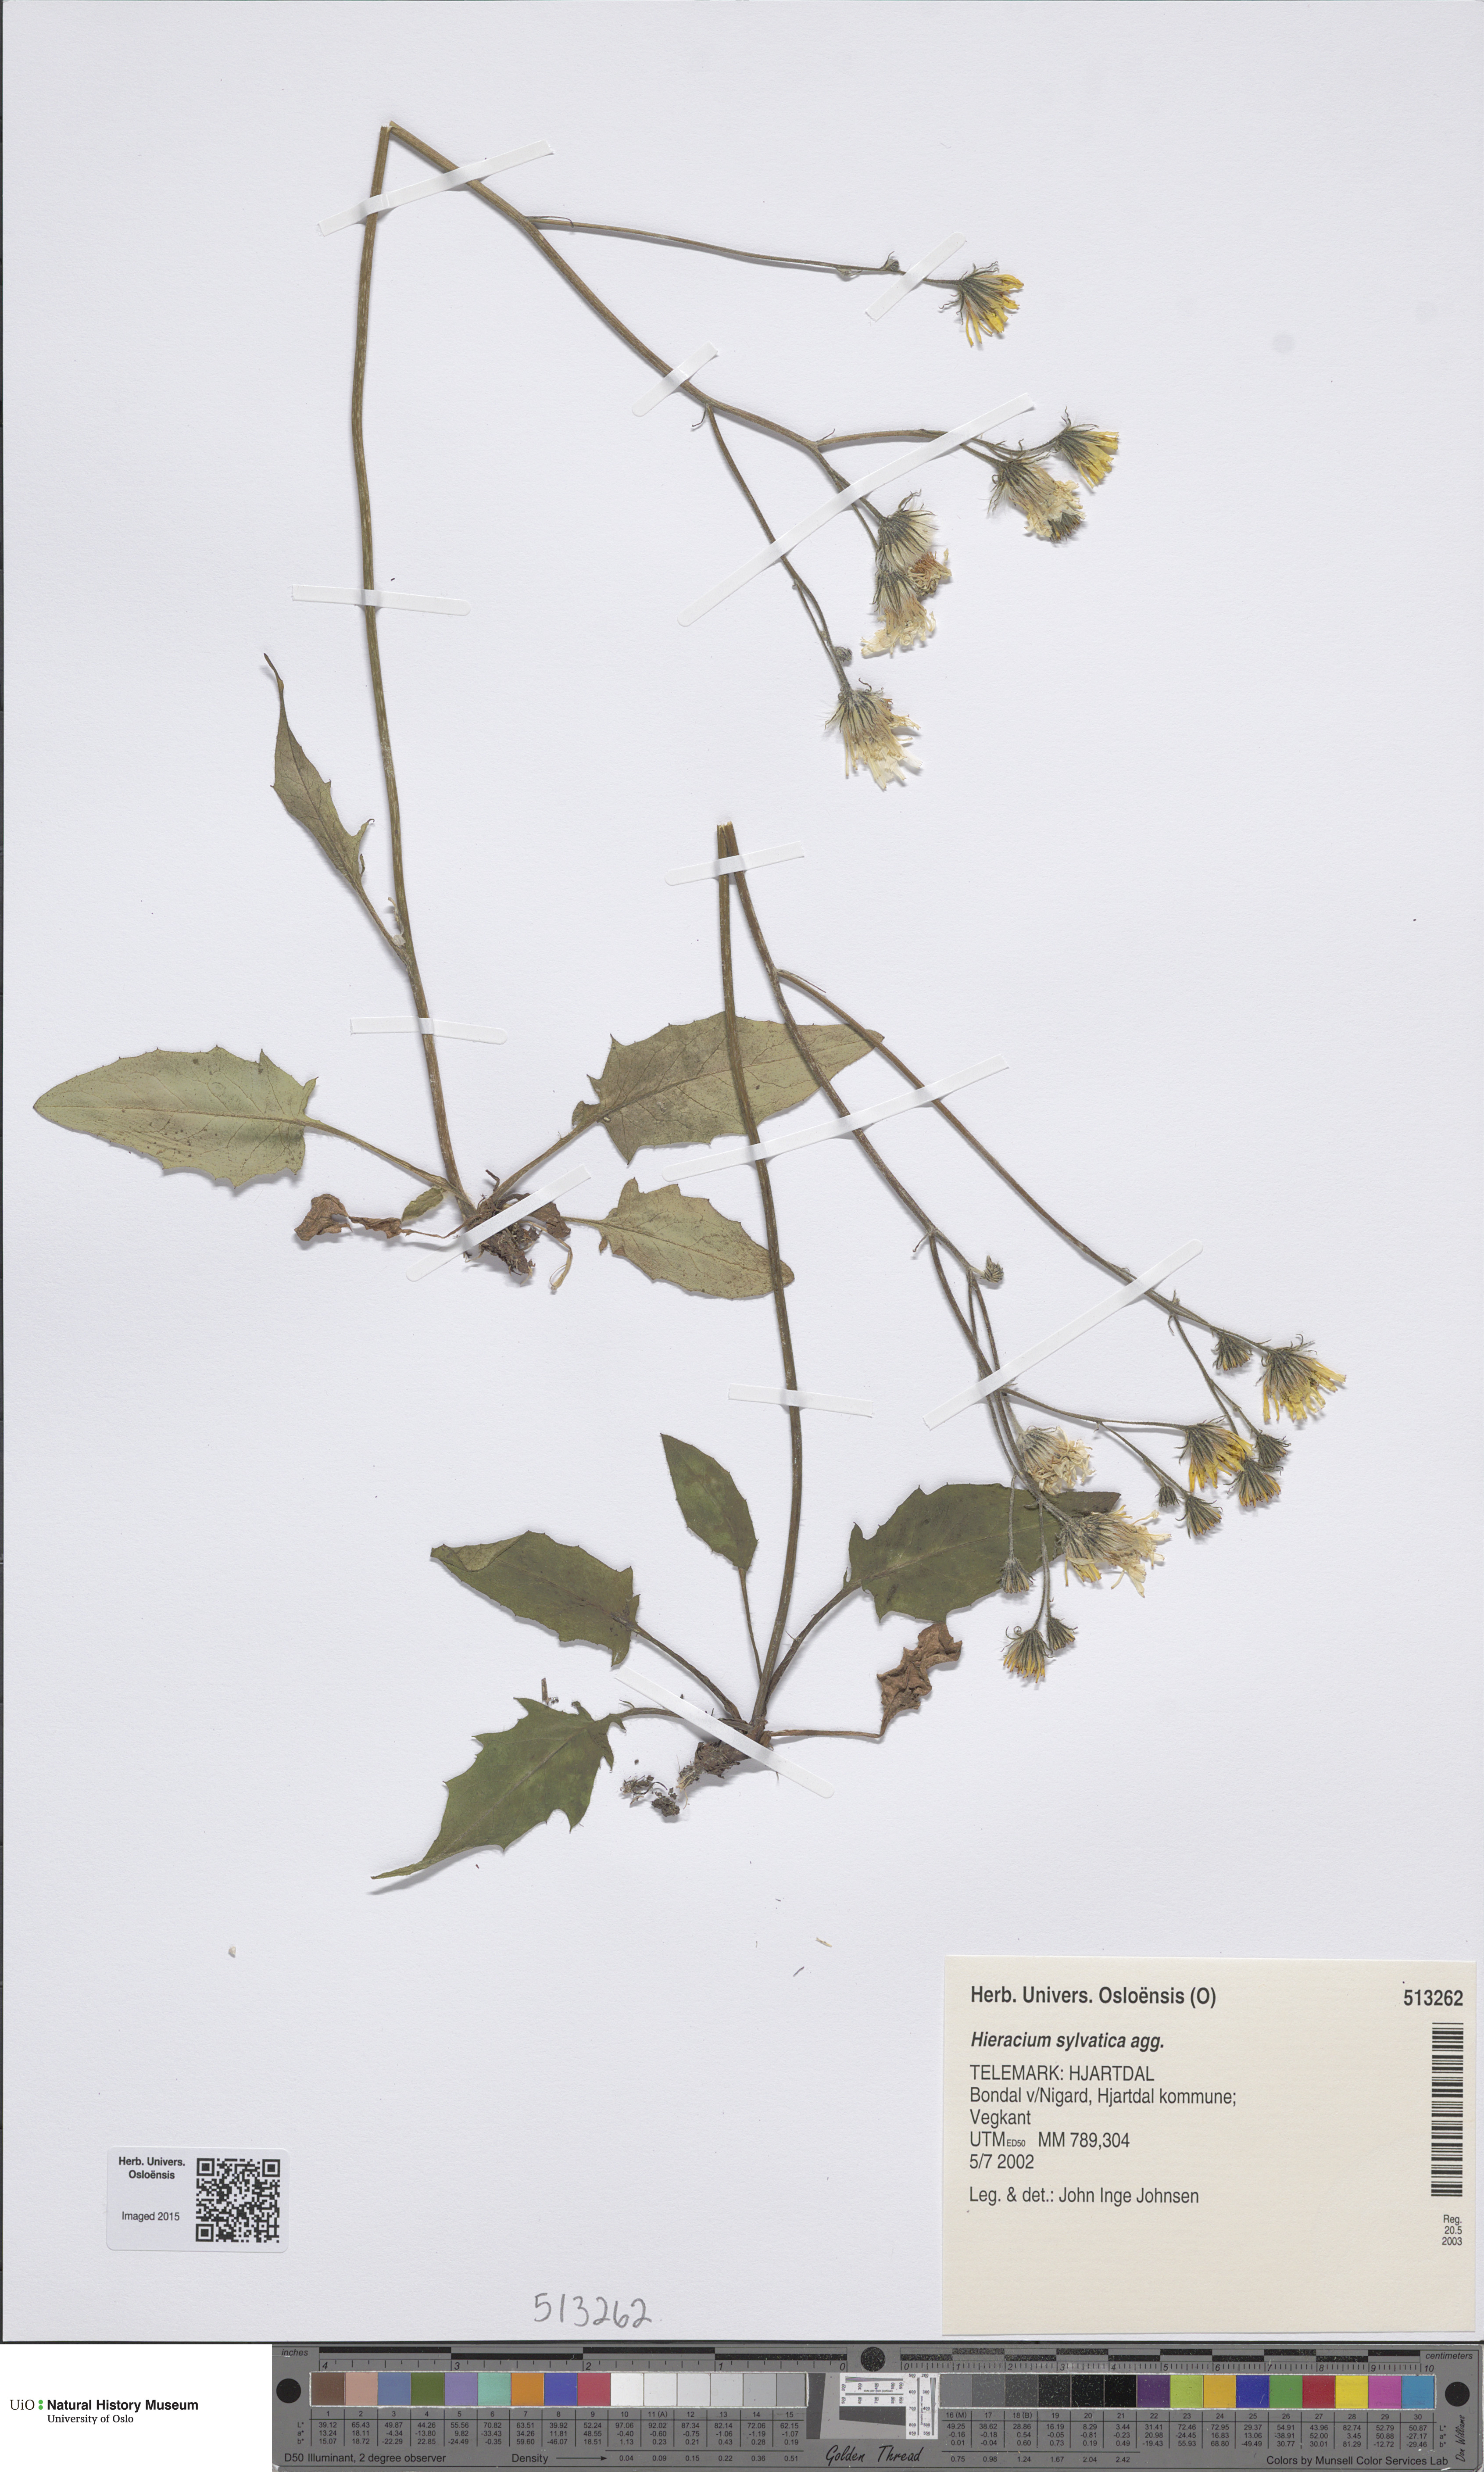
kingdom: Plantae
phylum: Tracheophyta
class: Magnoliopsida
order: Asterales
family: Asteraceae
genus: Hieracium
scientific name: Hieracium
